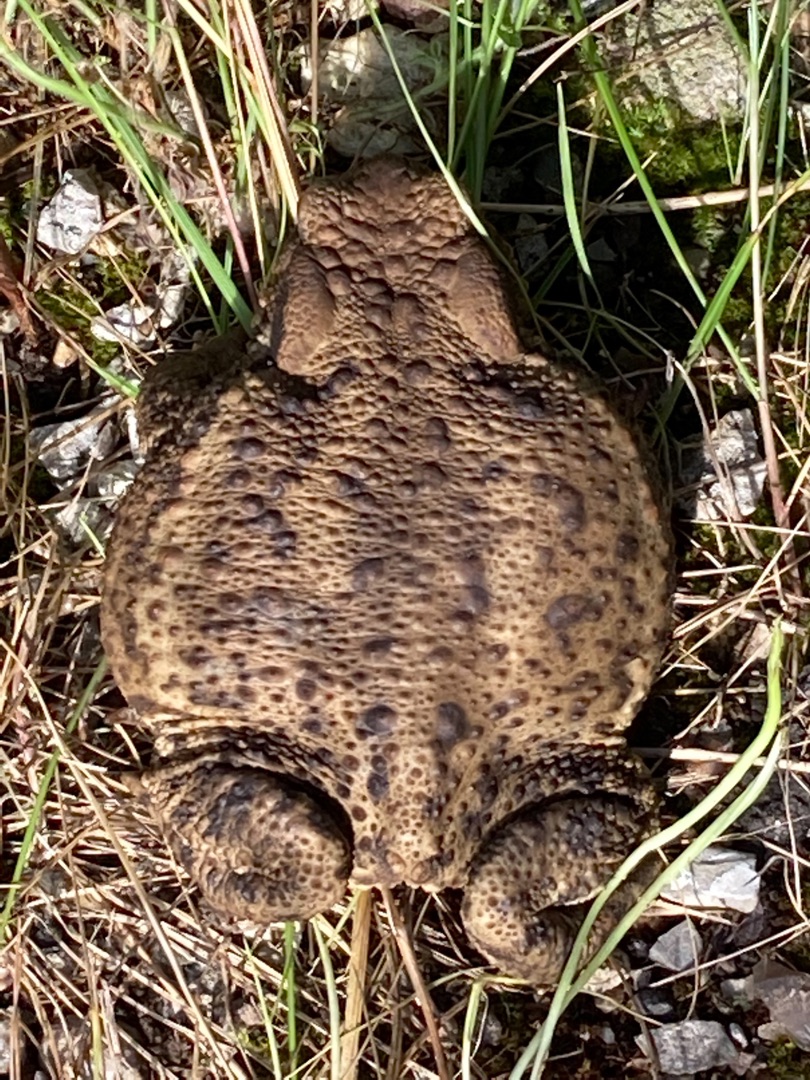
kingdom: Animalia
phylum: Chordata
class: Amphibia
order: Anura
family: Bufonidae
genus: Bufo
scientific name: Bufo bufo
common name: Skrubtudse
